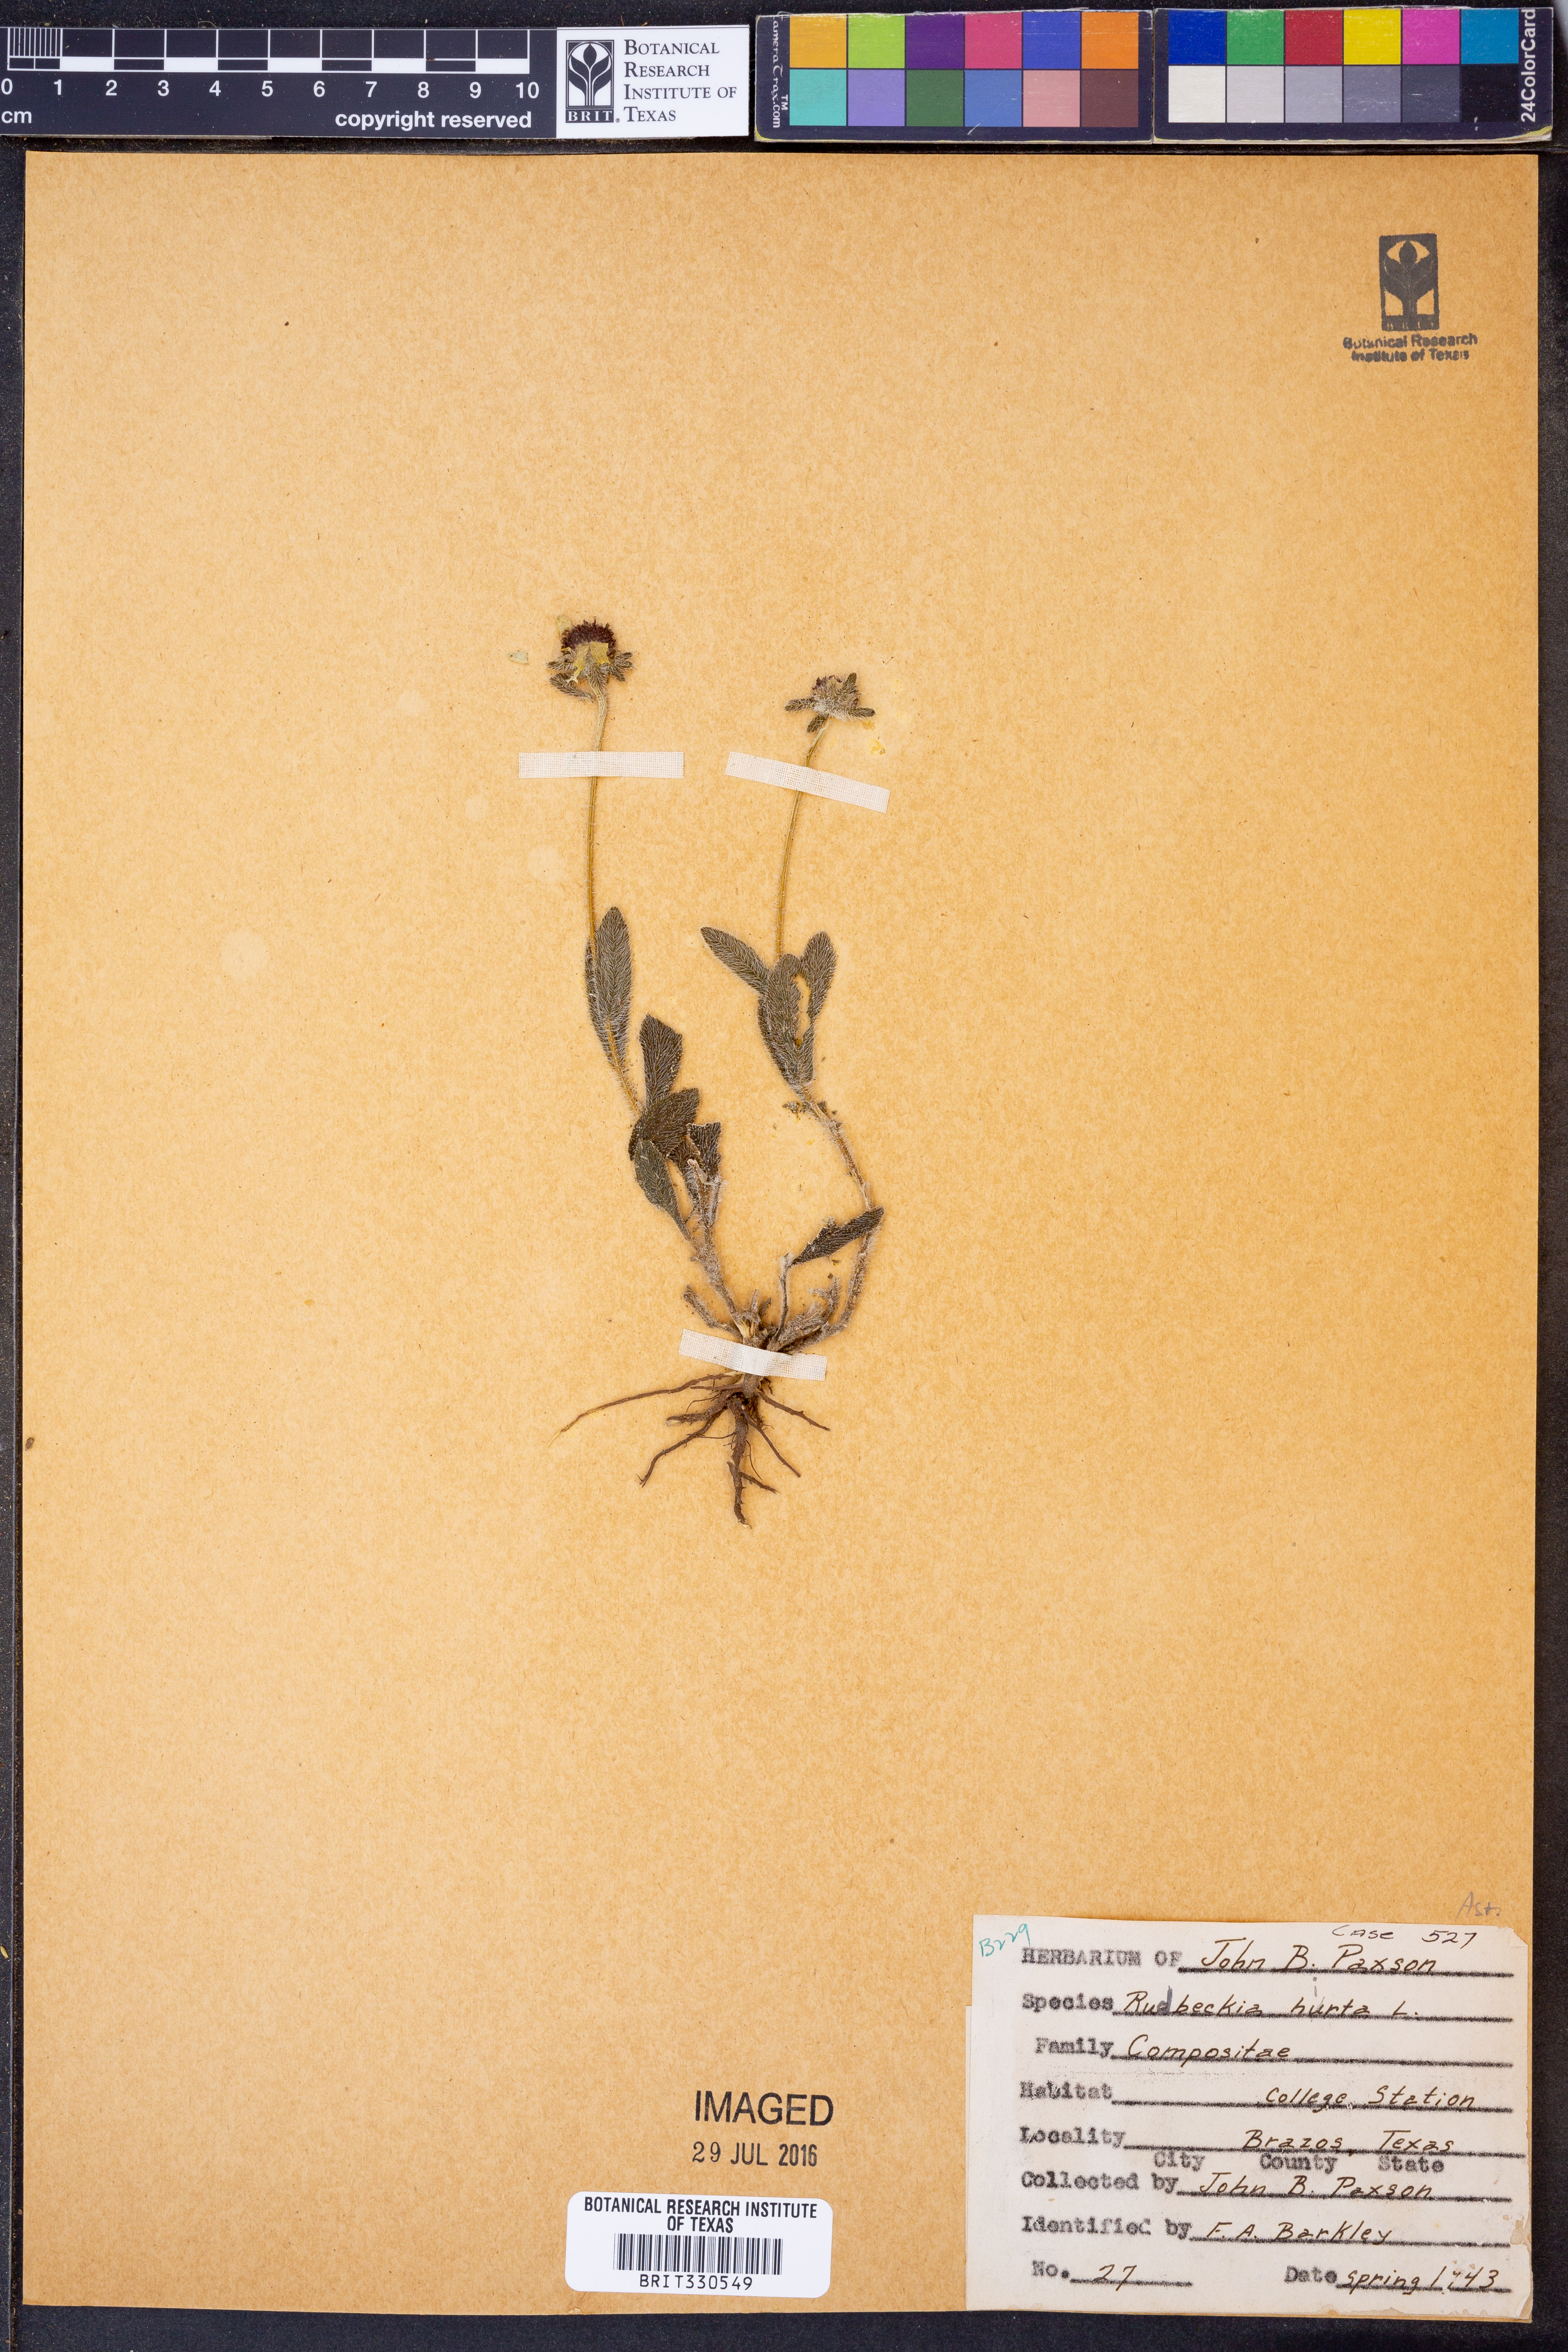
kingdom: Plantae
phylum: Tracheophyta
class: Magnoliopsida
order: Asterales
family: Asteraceae
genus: Rudbeckia
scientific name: Rudbeckia hirta
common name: Black-eyed-susan
